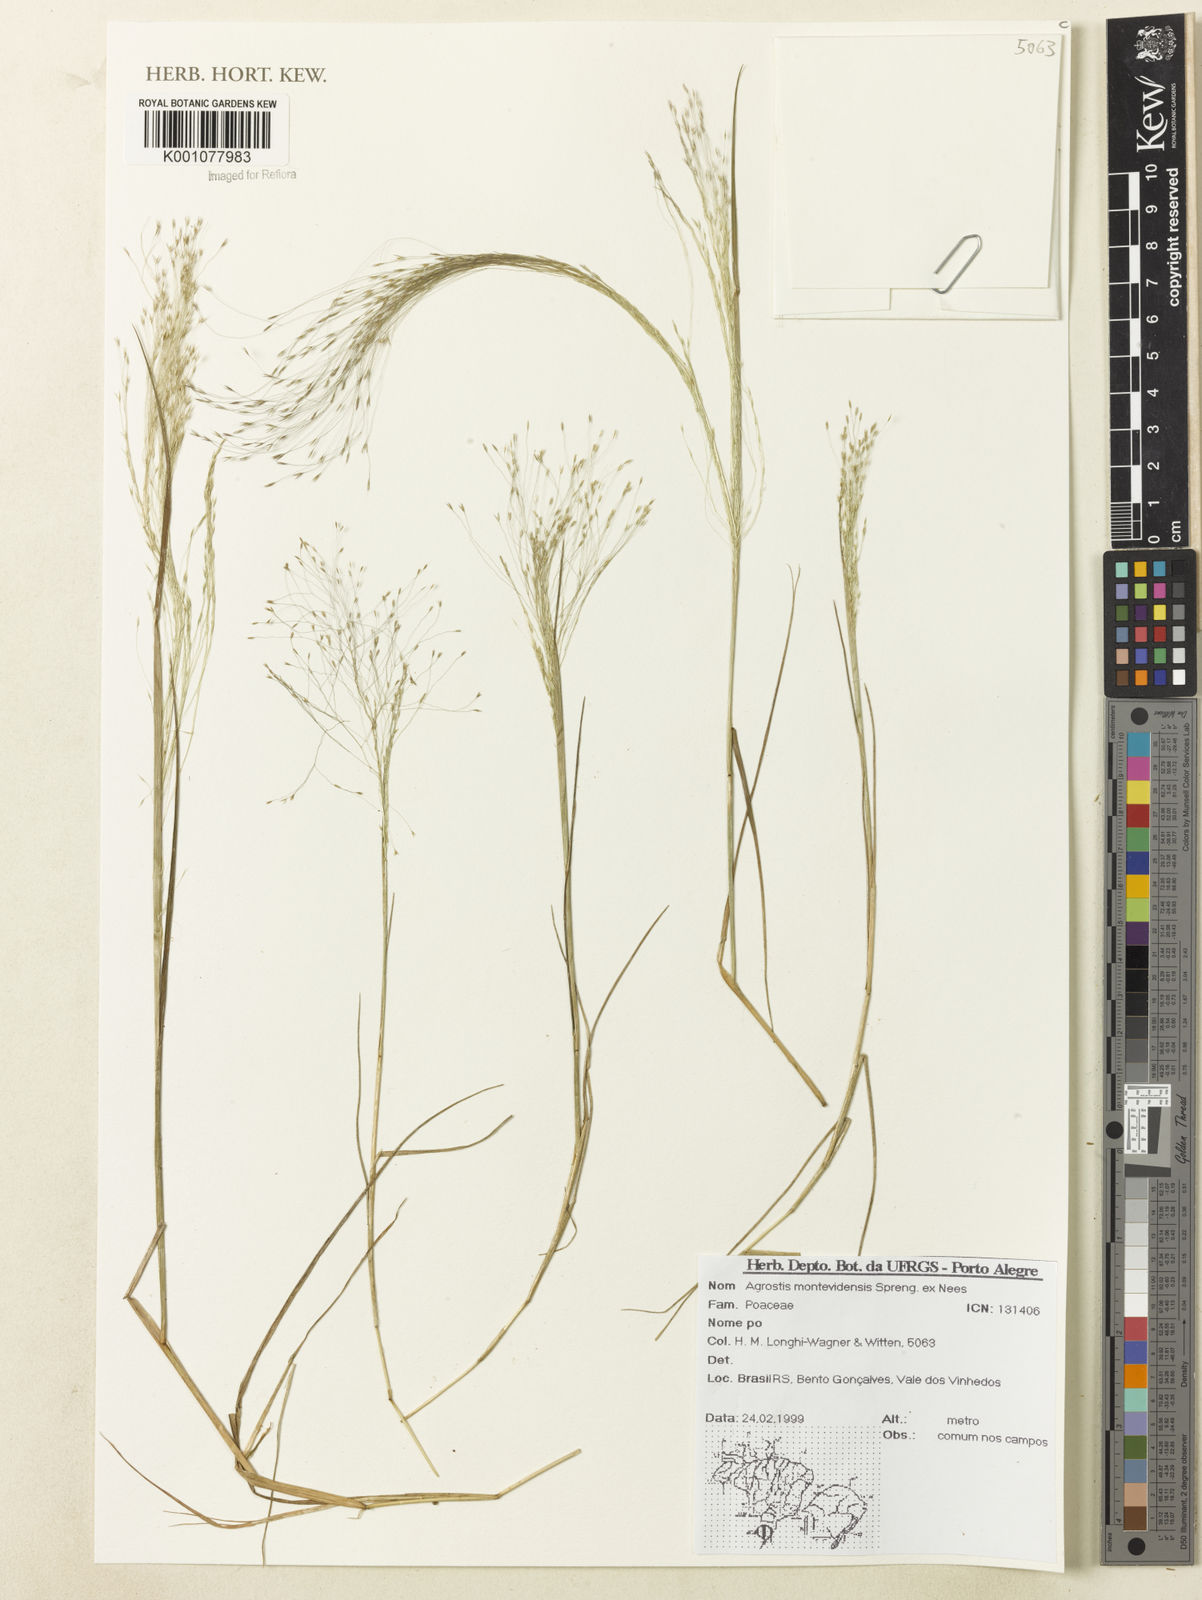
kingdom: Plantae
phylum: Tracheophyta
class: Liliopsida
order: Poales
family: Poaceae
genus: Agrostis
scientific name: Agrostis montevidensis
